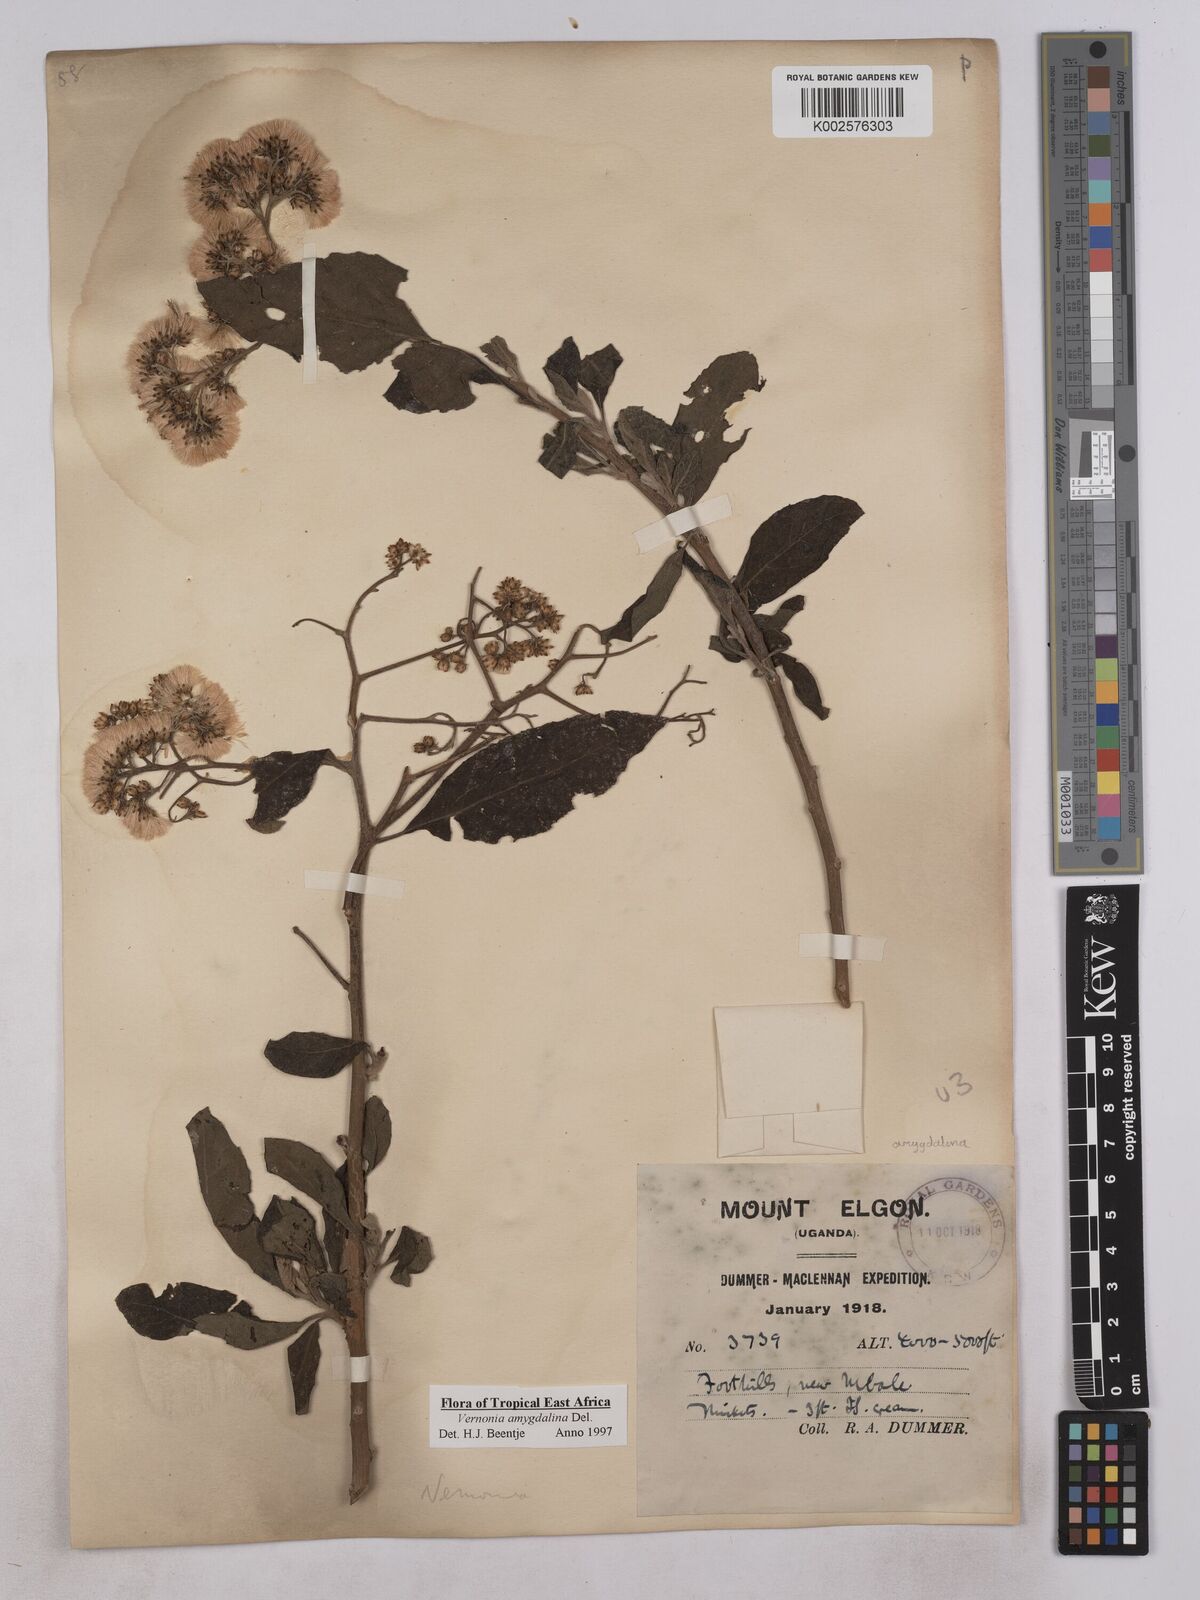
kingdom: Plantae
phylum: Tracheophyta
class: Magnoliopsida
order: Asterales
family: Asteraceae
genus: Gymnanthemum
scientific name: Gymnanthemum amygdalinum
